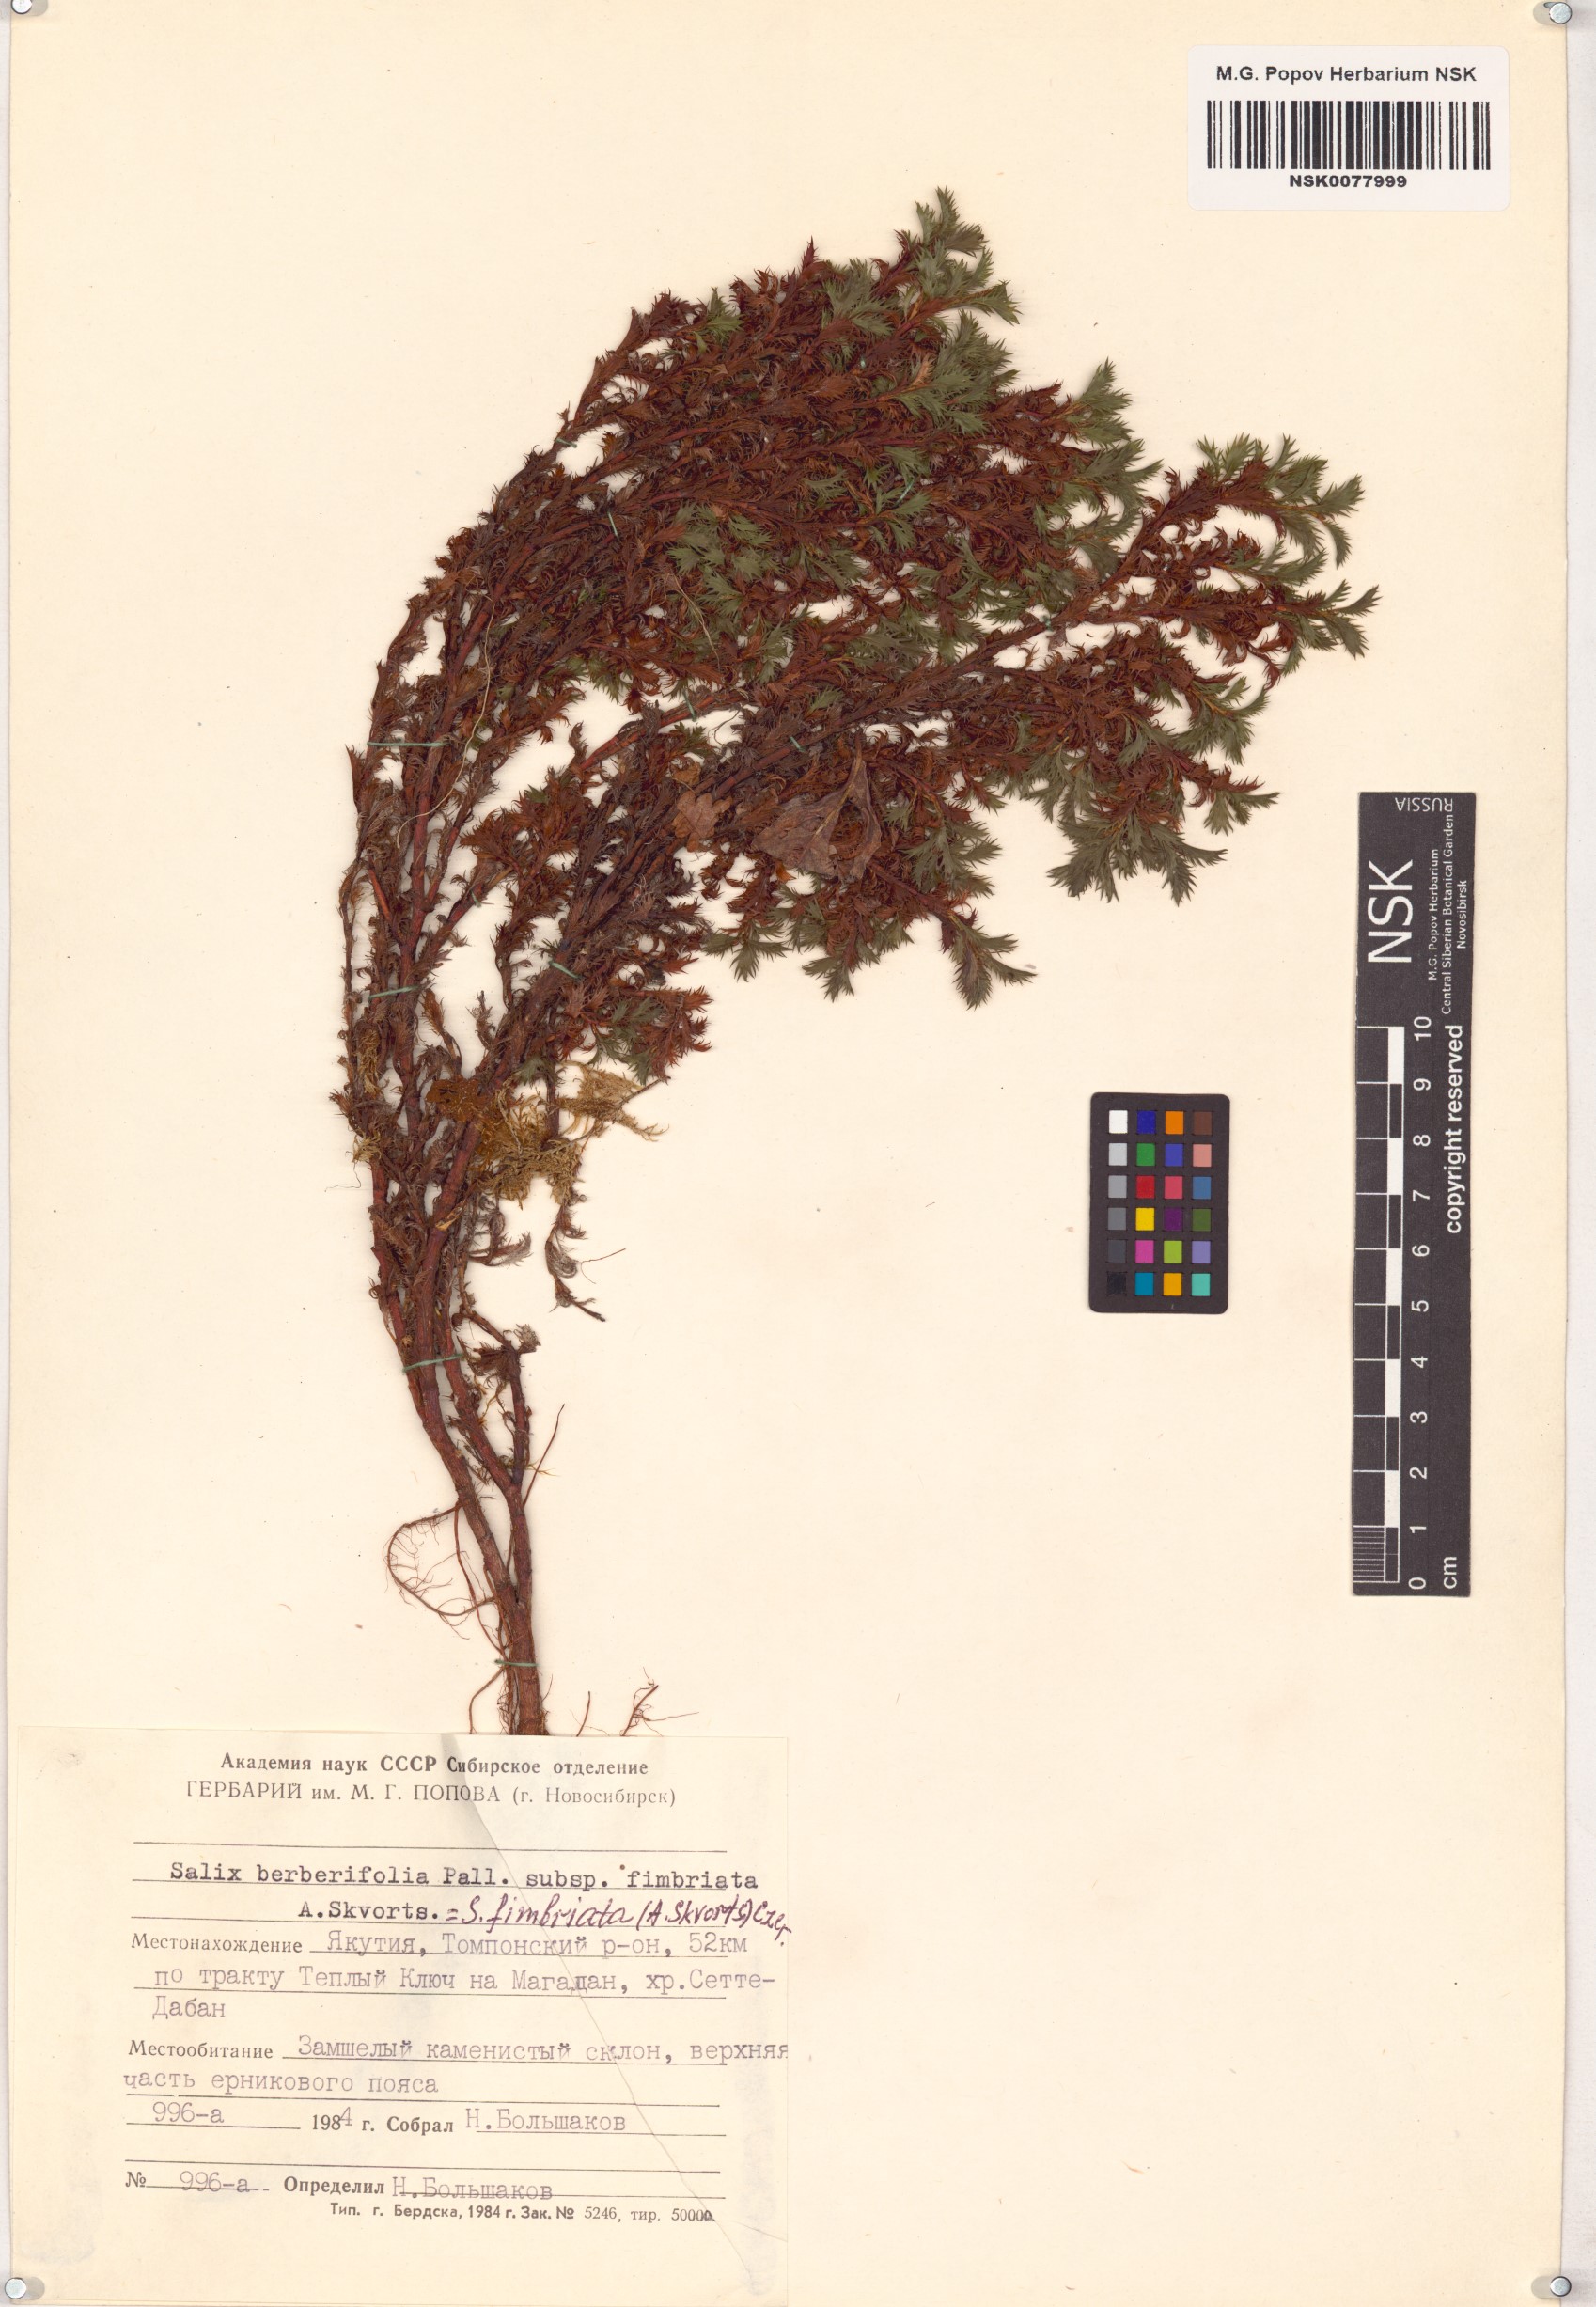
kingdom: Plantae
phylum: Tracheophyta
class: Magnoliopsida
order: Malpighiales
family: Salicaceae
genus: Salix
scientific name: Salix berberifolia
